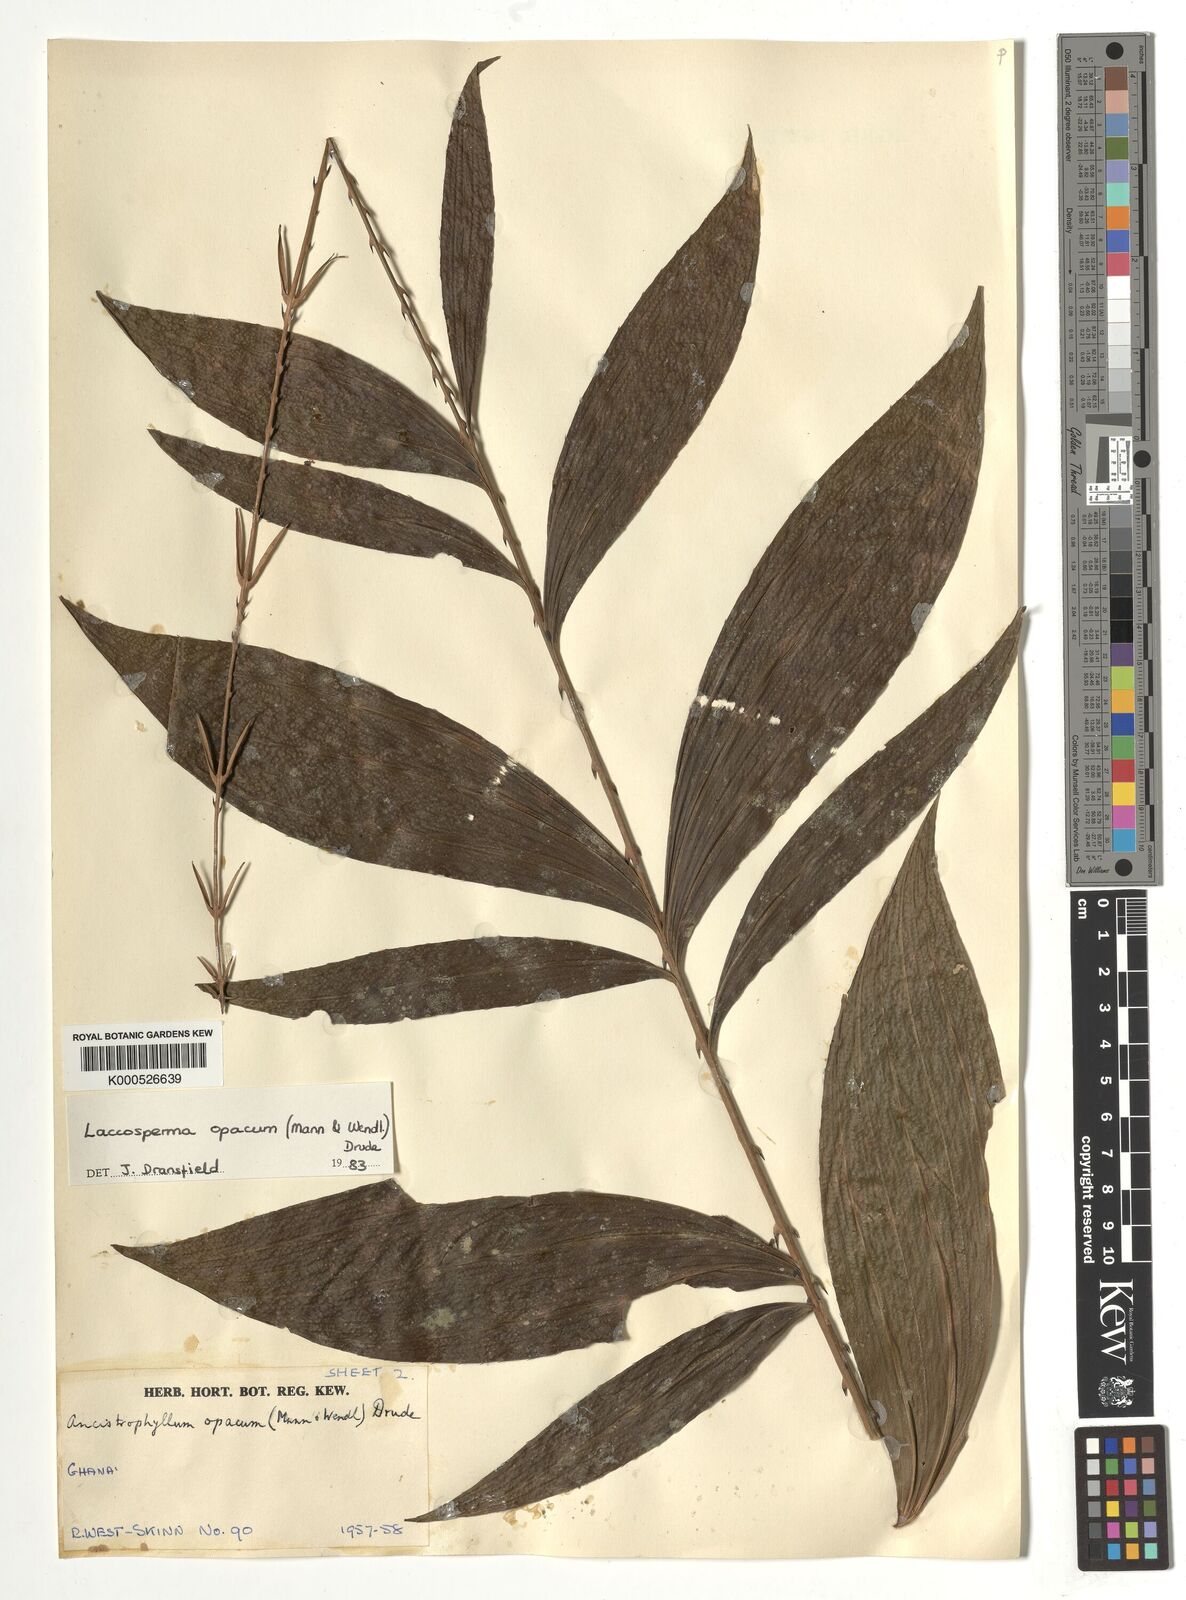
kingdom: Plantae
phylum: Tracheophyta
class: Liliopsida
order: Arecales
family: Arecaceae
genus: Laccosperma
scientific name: Laccosperma opacum
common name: Rattan
